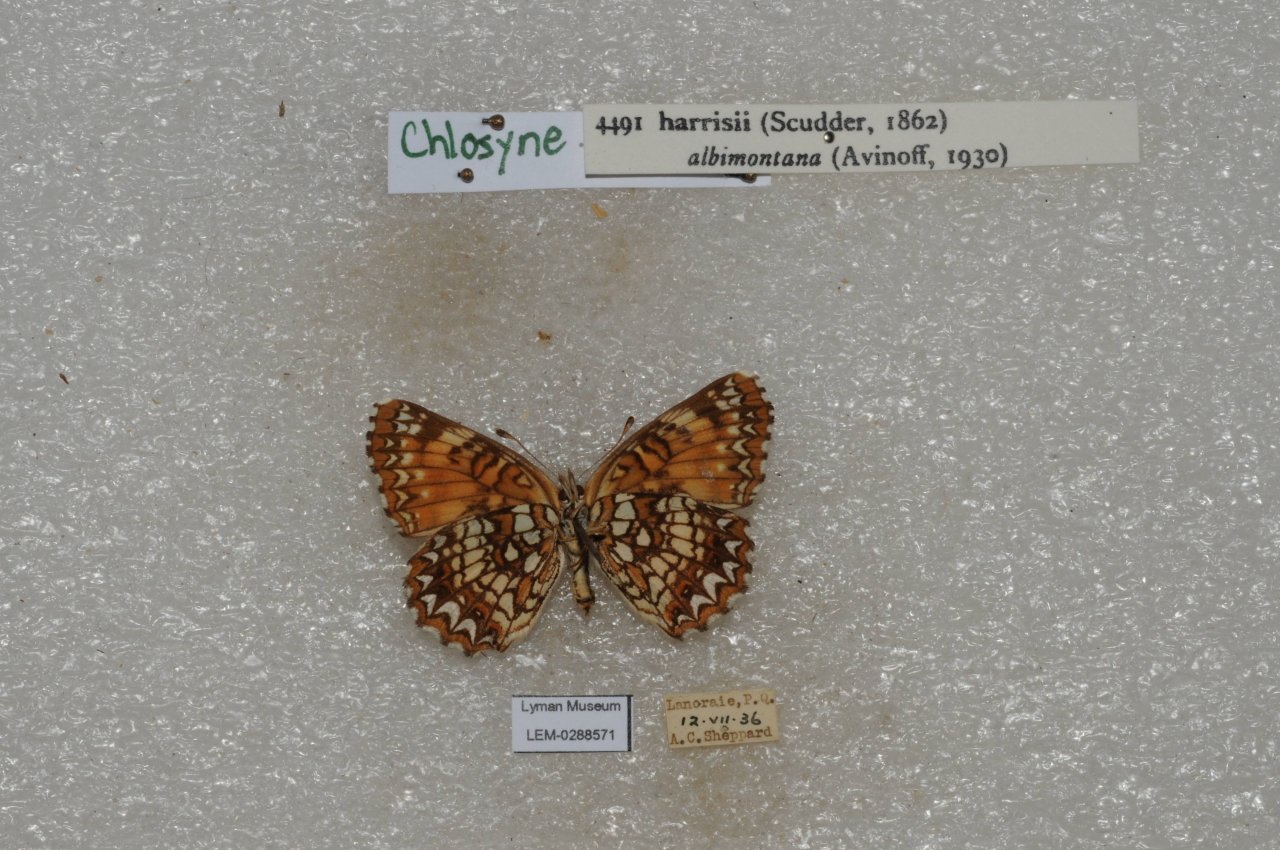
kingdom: Animalia
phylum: Arthropoda
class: Insecta
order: Lepidoptera
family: Nymphalidae
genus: Chlosyne
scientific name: Chlosyne harrisii
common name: Harris's Checkerspot
